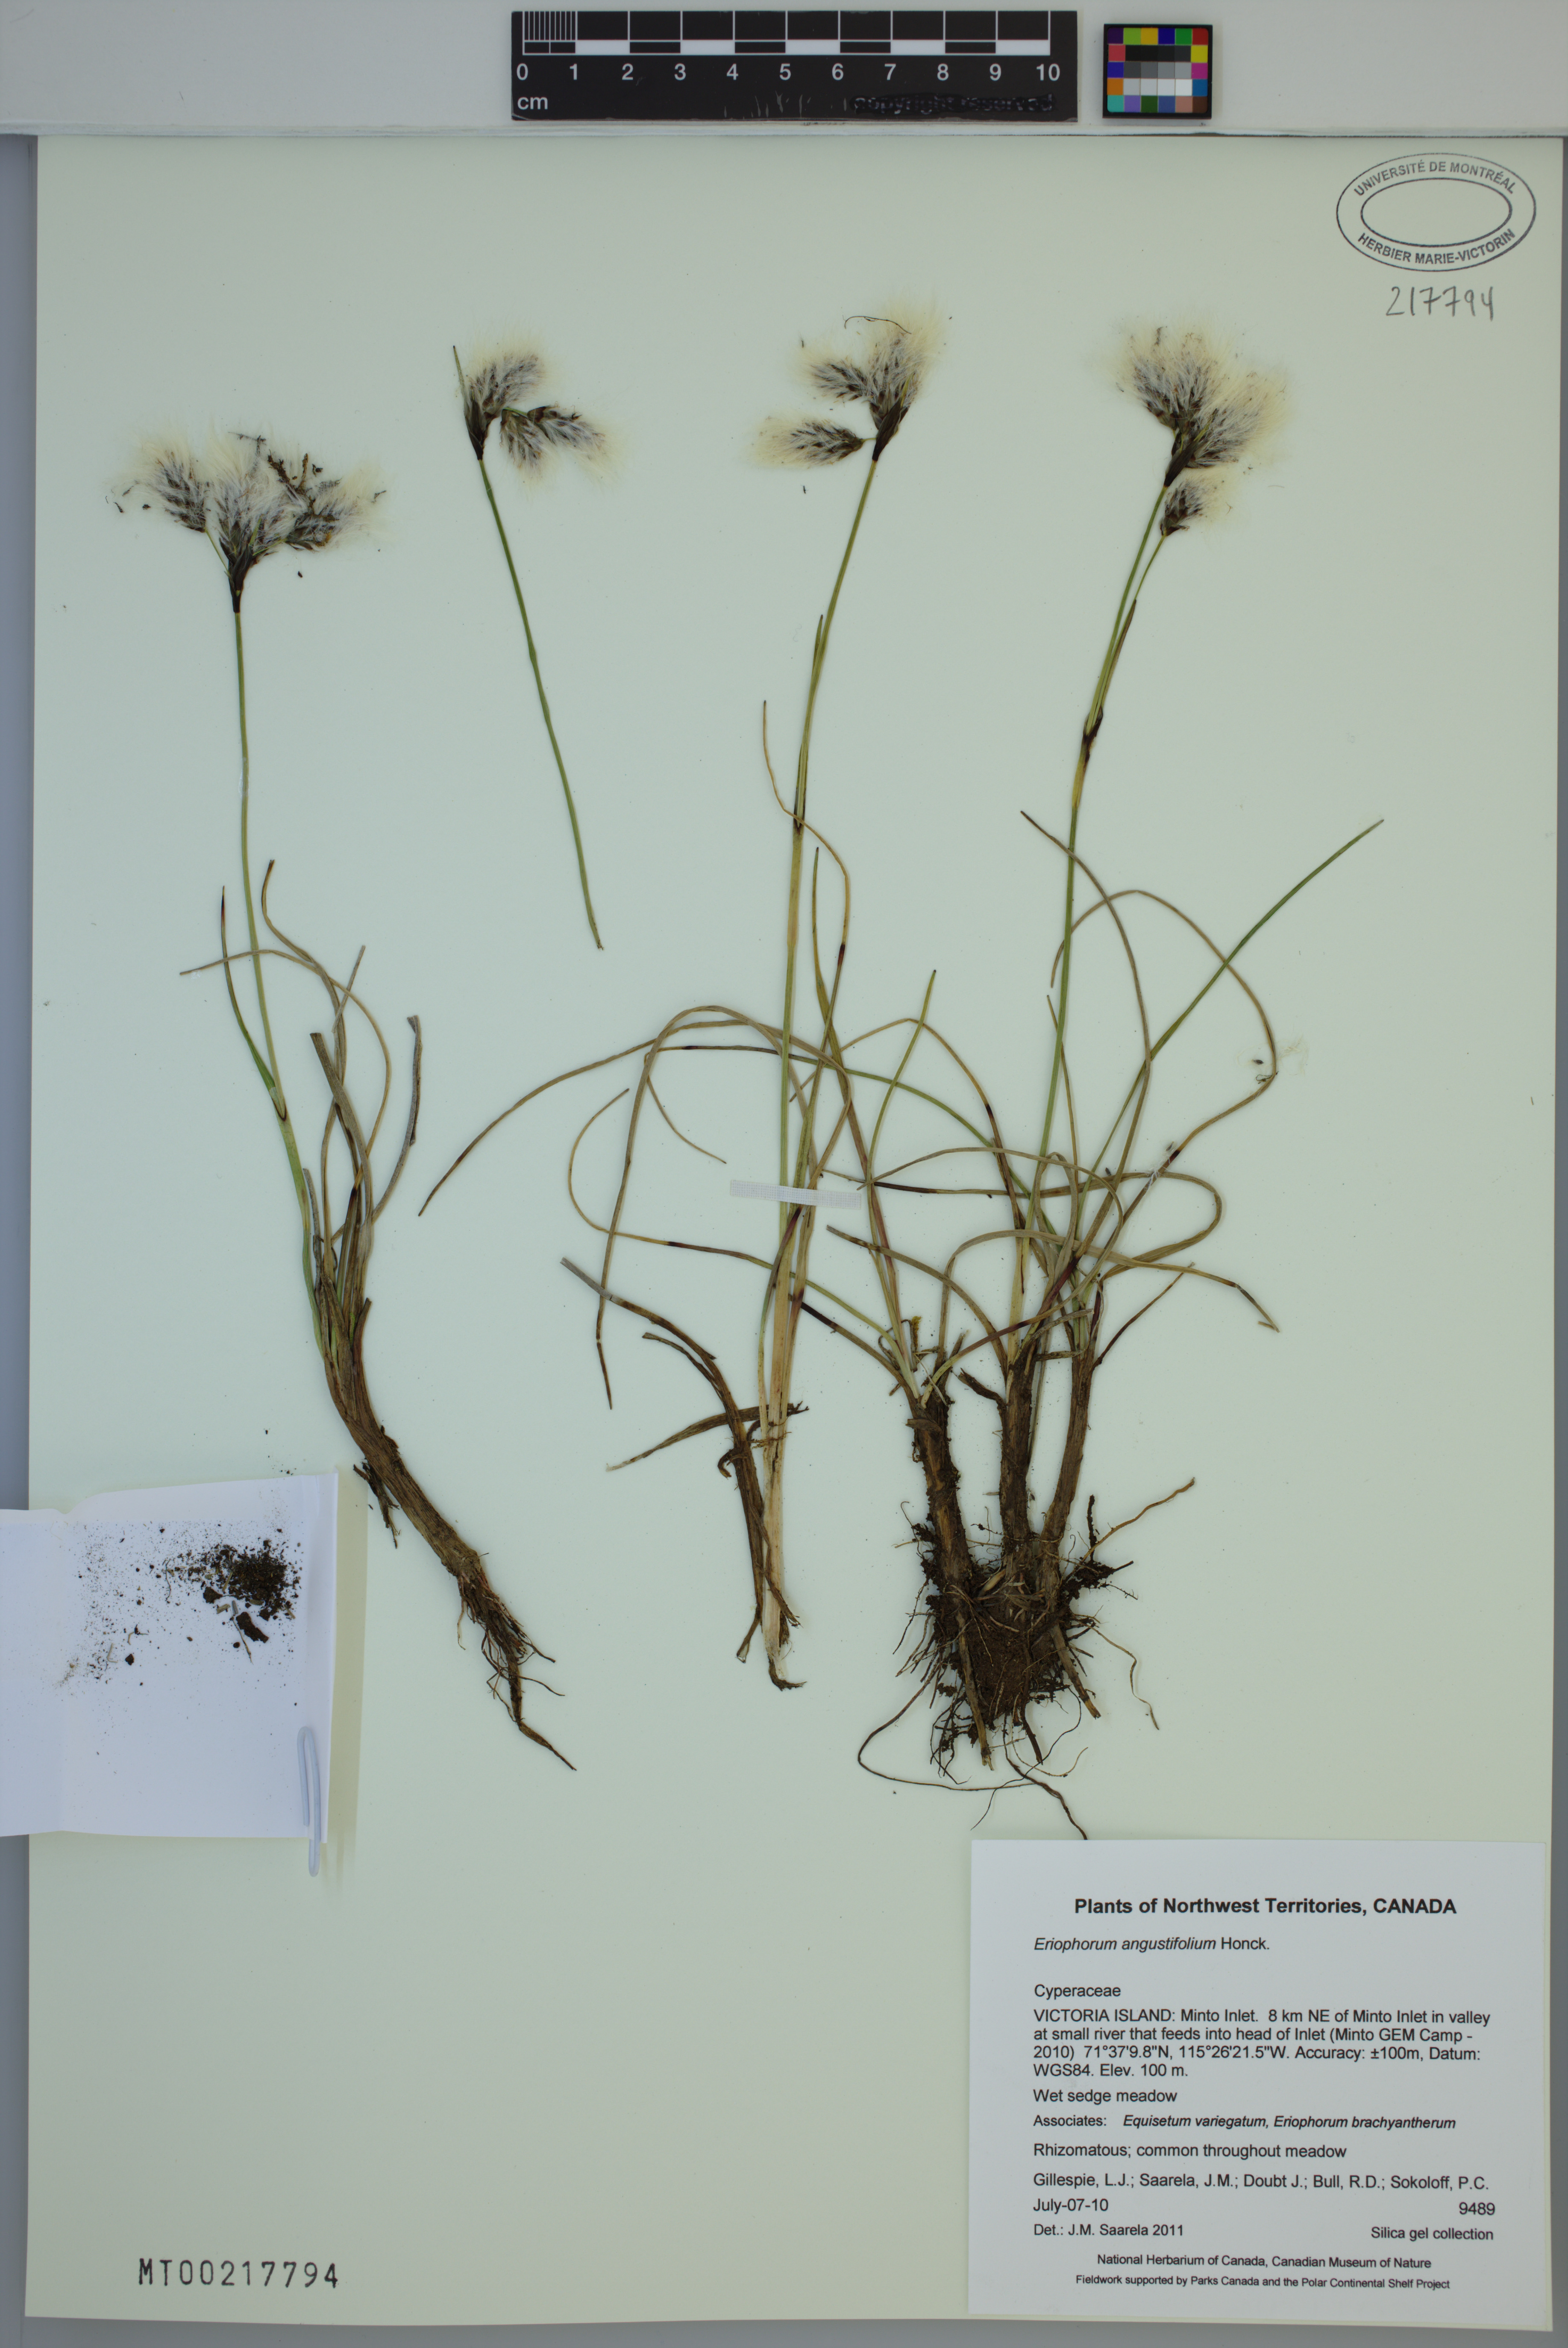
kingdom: Plantae
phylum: Tracheophyta
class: Liliopsida
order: Poales
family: Cyperaceae
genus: Eriophorum
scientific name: Eriophorum angustifolium
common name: Common cottongrass
